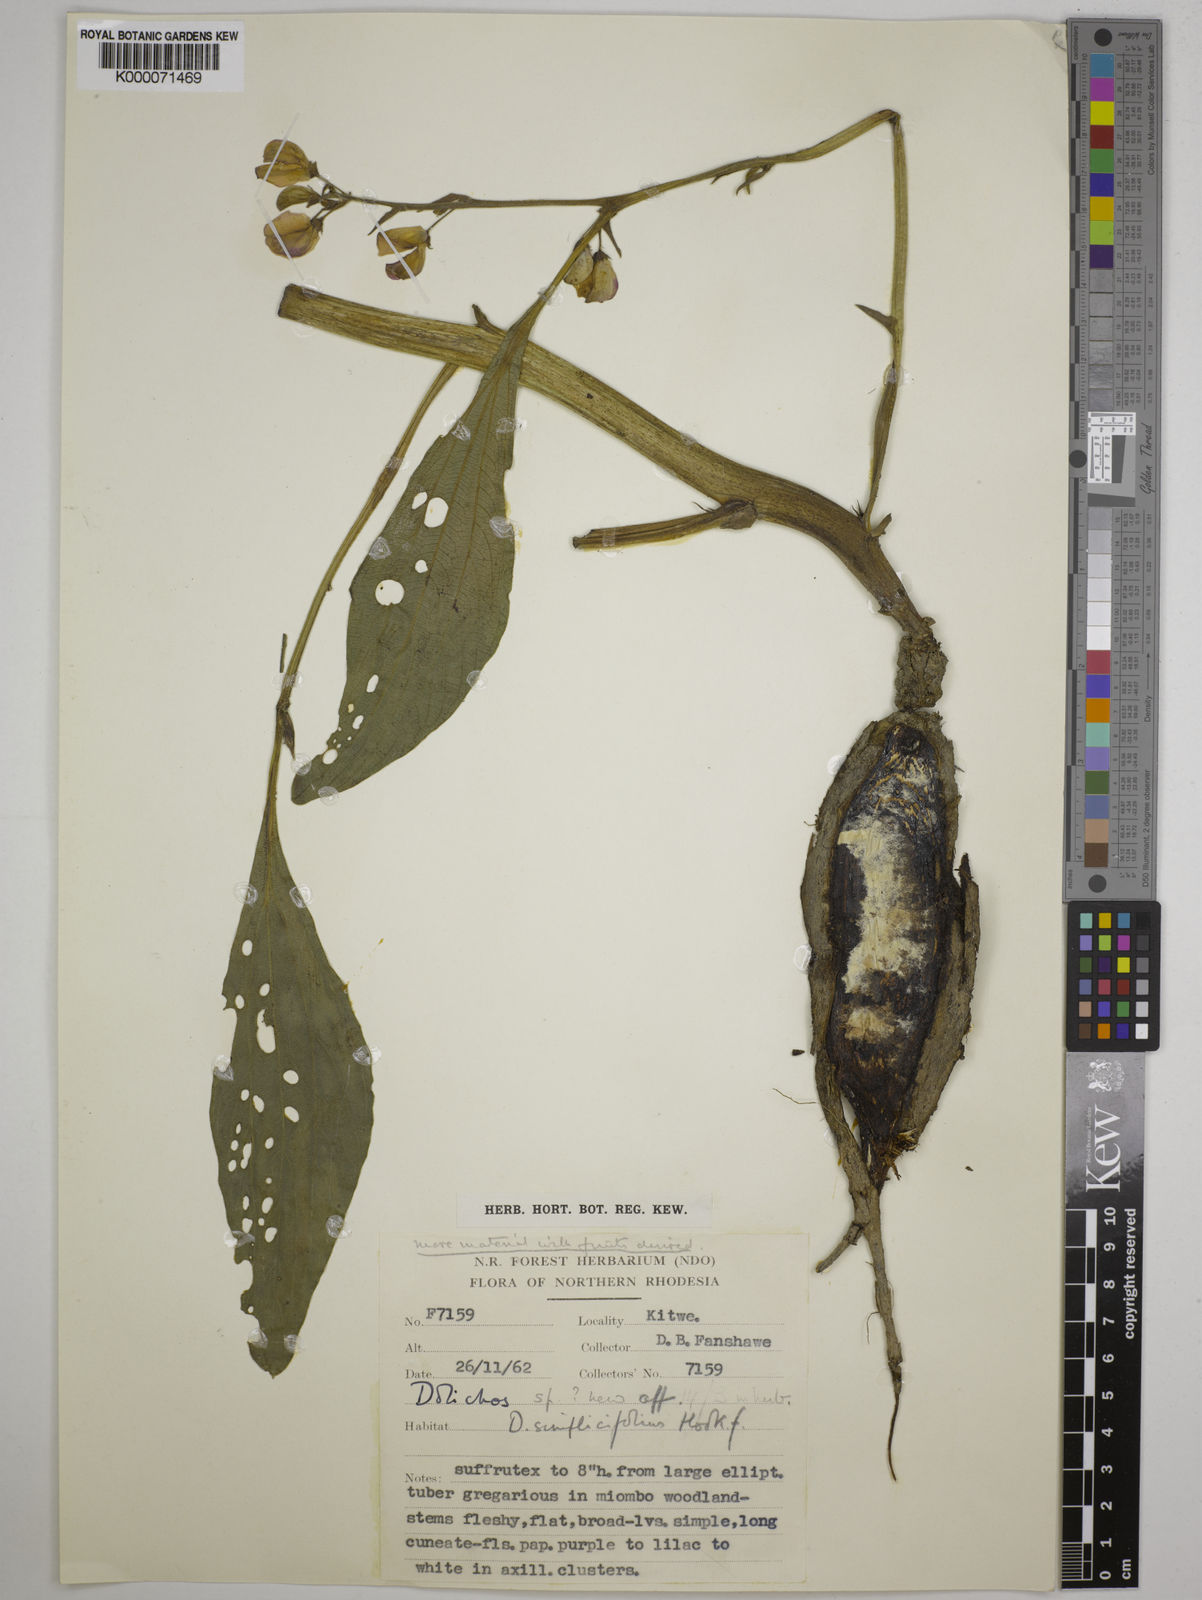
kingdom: Plantae
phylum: Tracheophyta
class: Magnoliopsida
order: Fabales
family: Fabaceae
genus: Dolichos
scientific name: Dolichos simplicifolius
